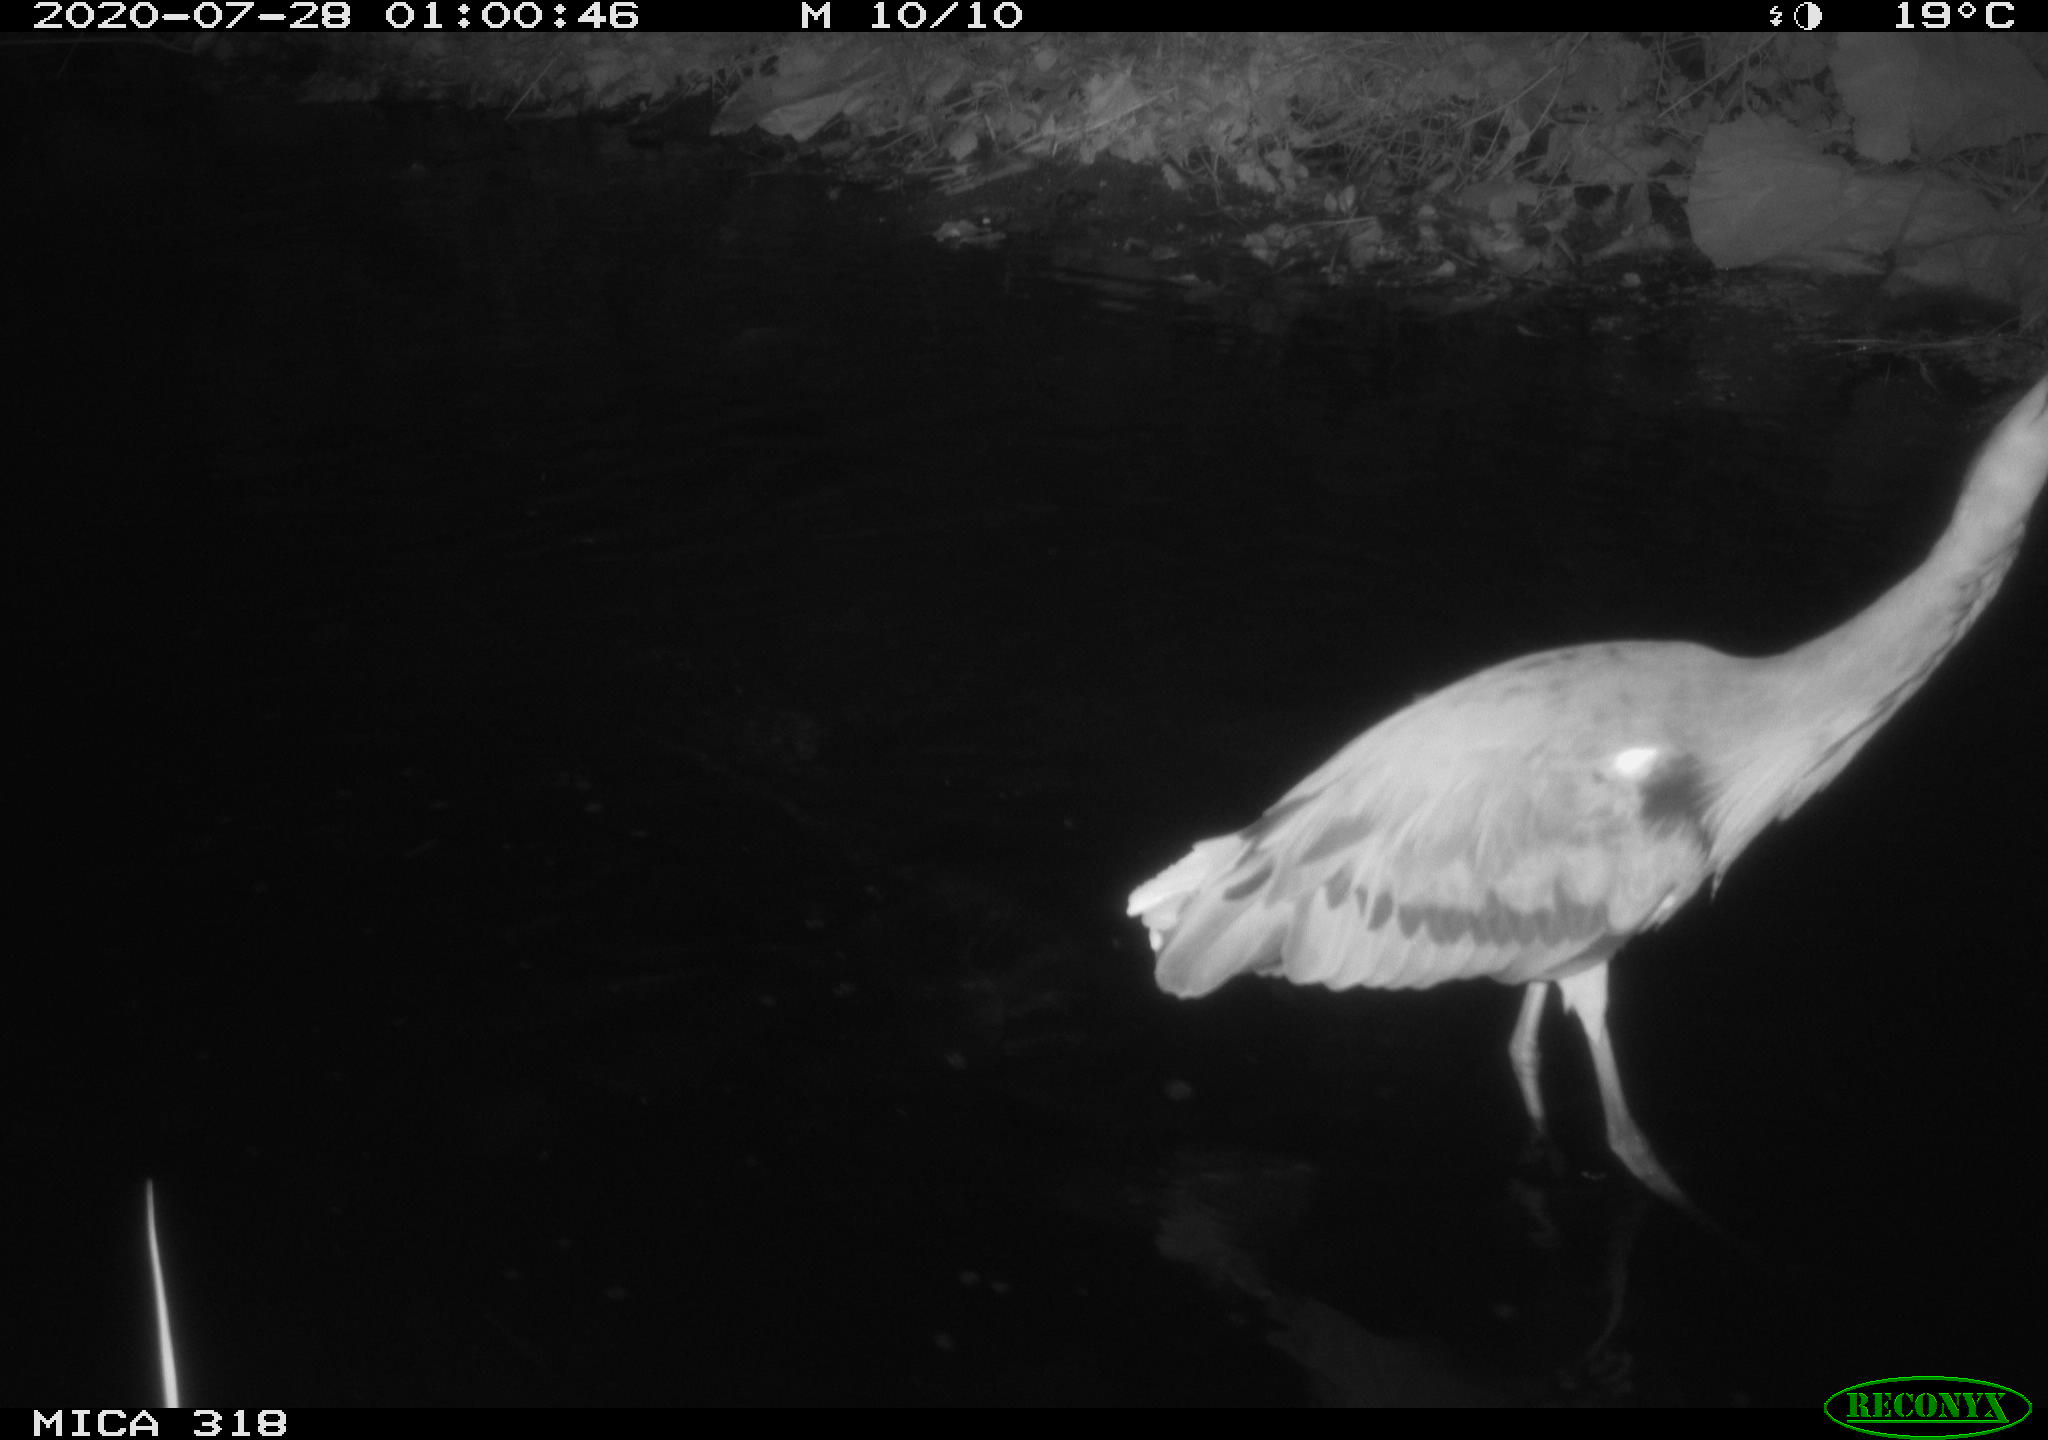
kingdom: Animalia
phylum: Chordata
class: Aves
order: Pelecaniformes
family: Ardeidae
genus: Ardea
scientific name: Ardea cinerea
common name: Grey heron
